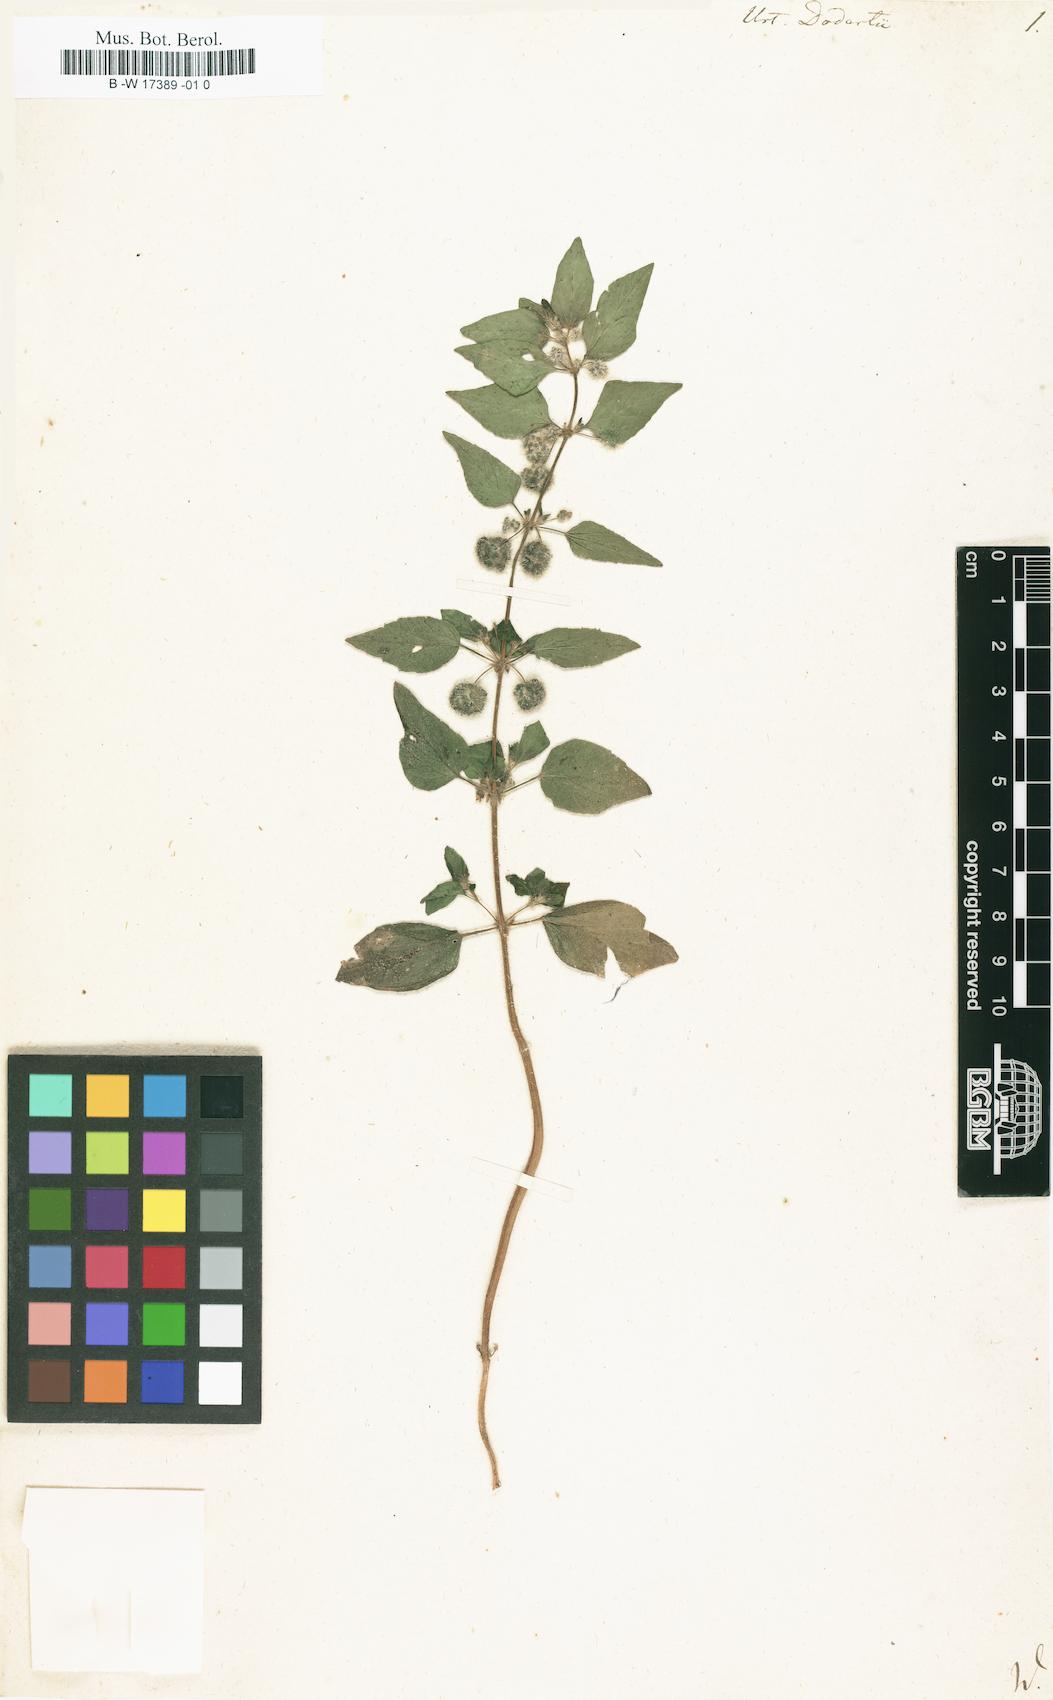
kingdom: Plantae
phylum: Tracheophyta
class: Magnoliopsida
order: Rosales
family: Urticaceae
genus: Urtica
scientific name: Urtica pilulifera
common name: Roman nettle
